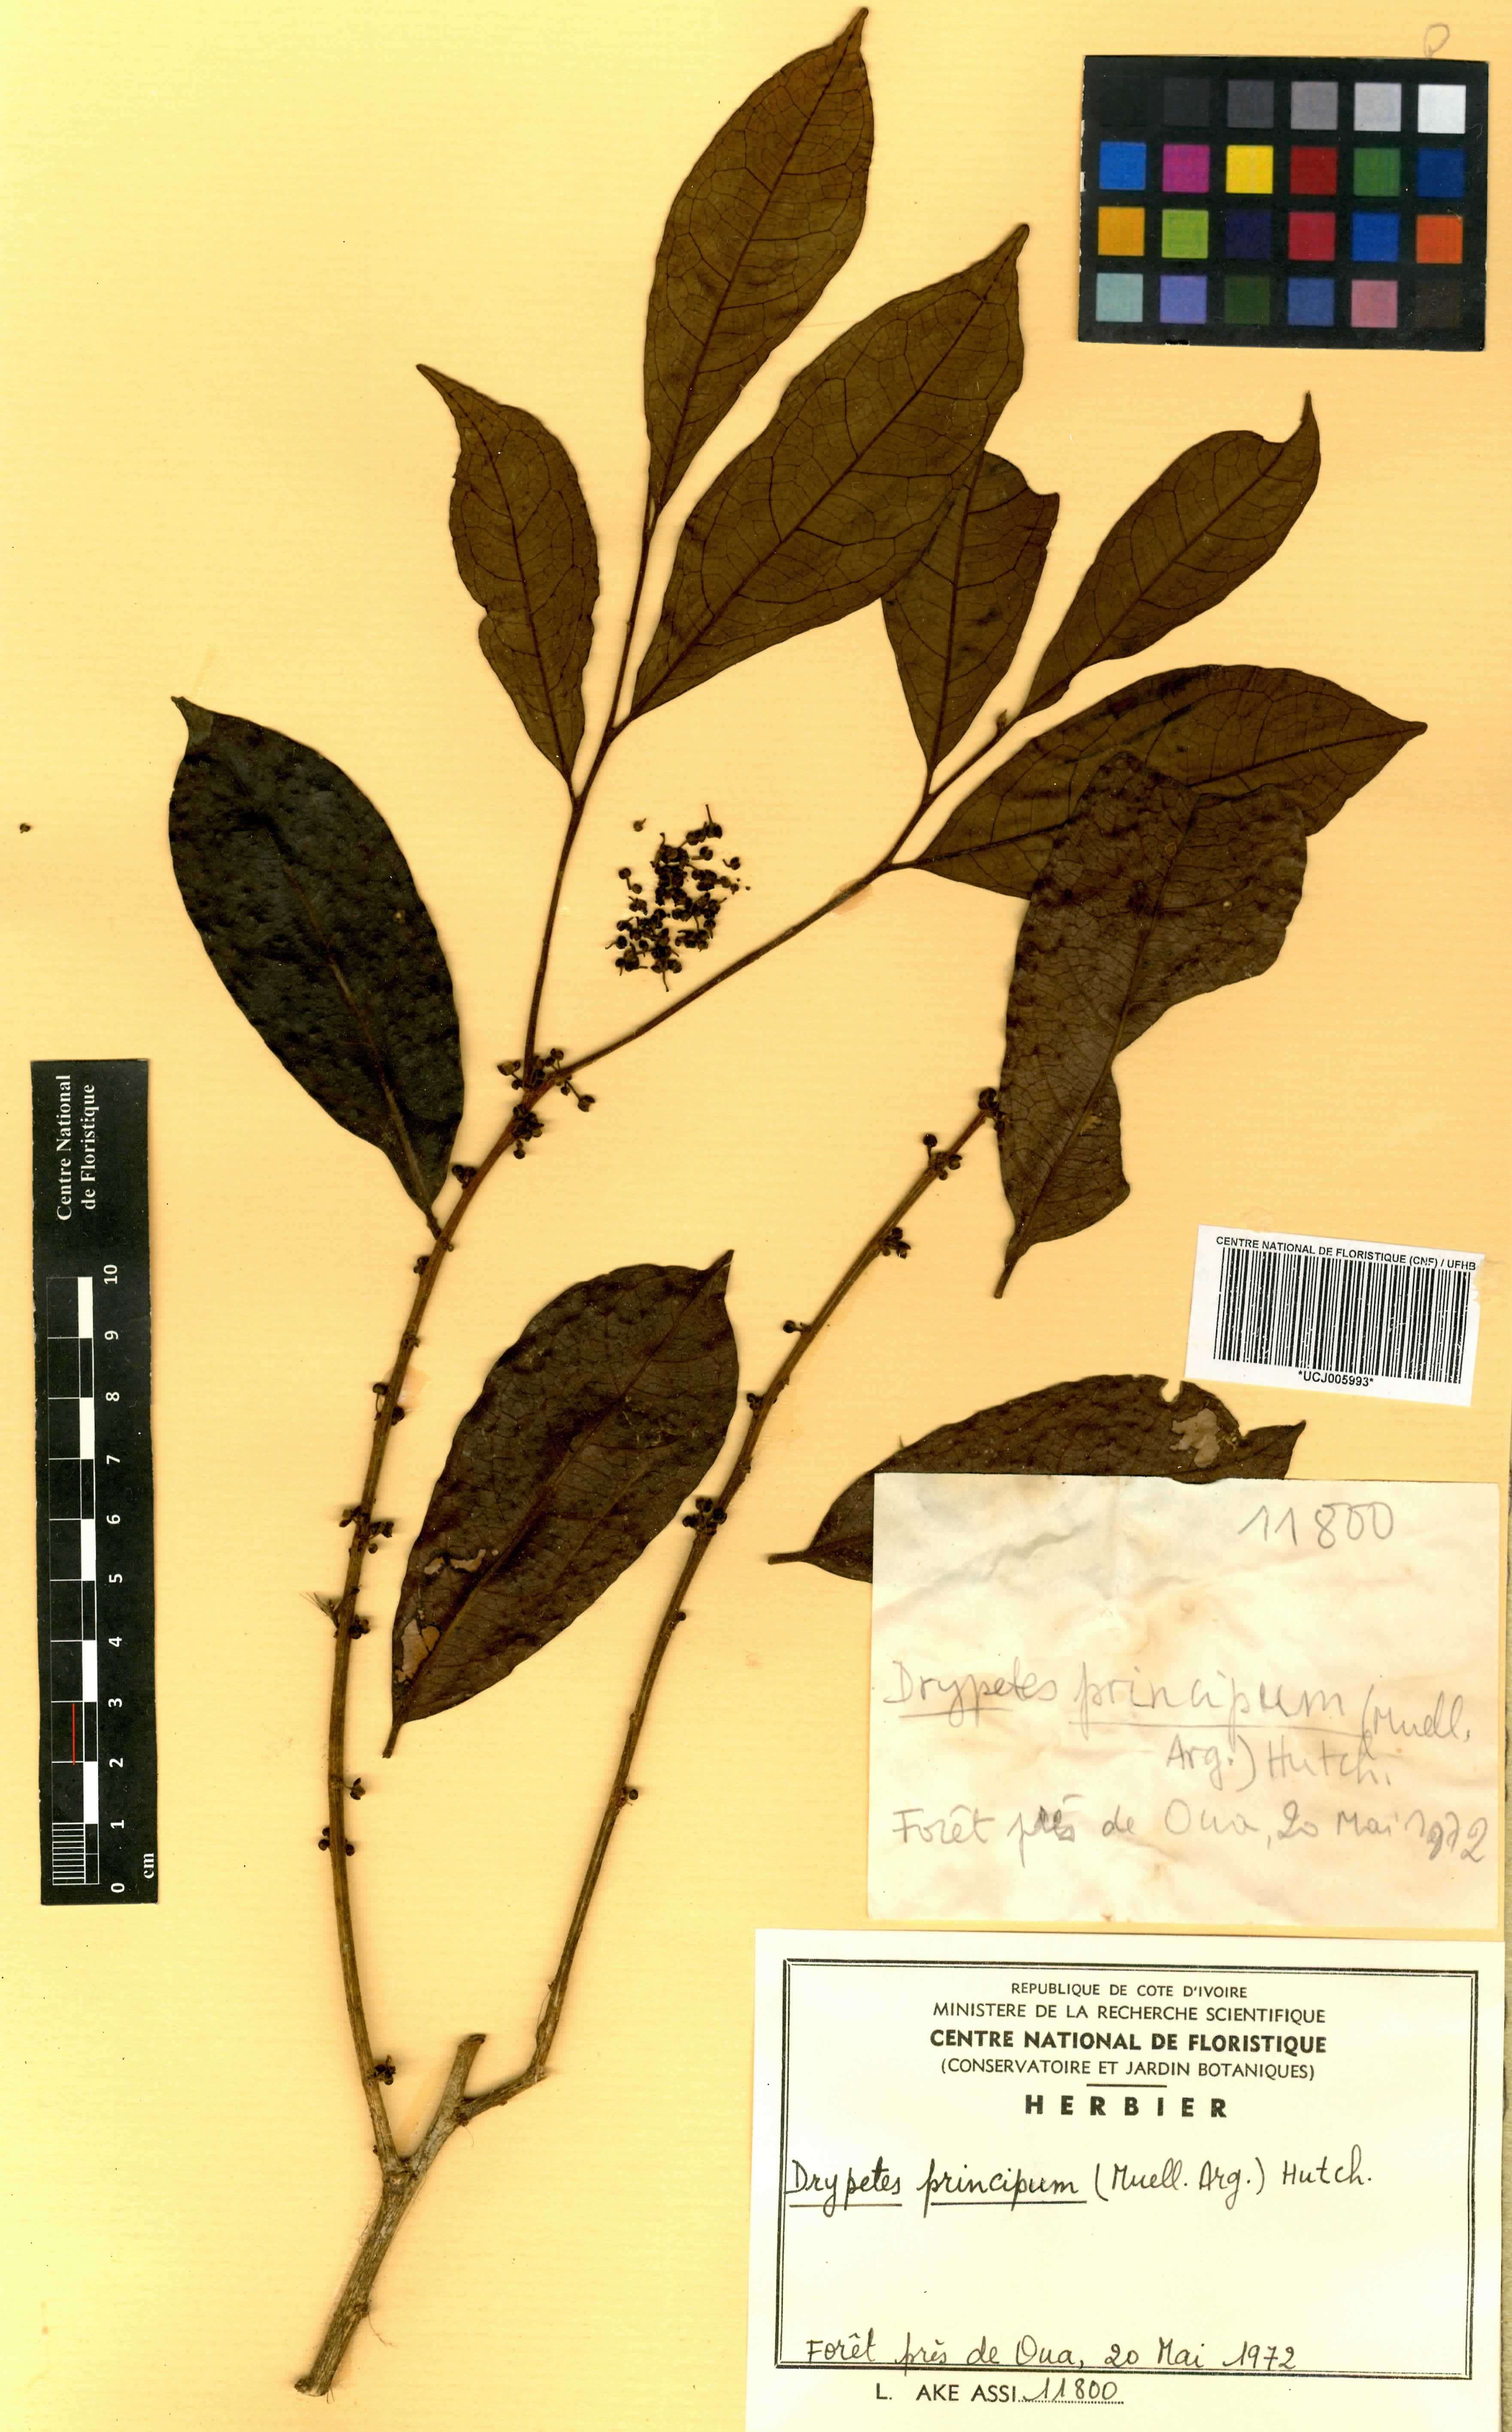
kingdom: Plantae
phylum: Tracheophyta
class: Magnoliopsida
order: Malpighiales
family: Putranjivaceae
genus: Drypetes
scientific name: Drypetes principum
